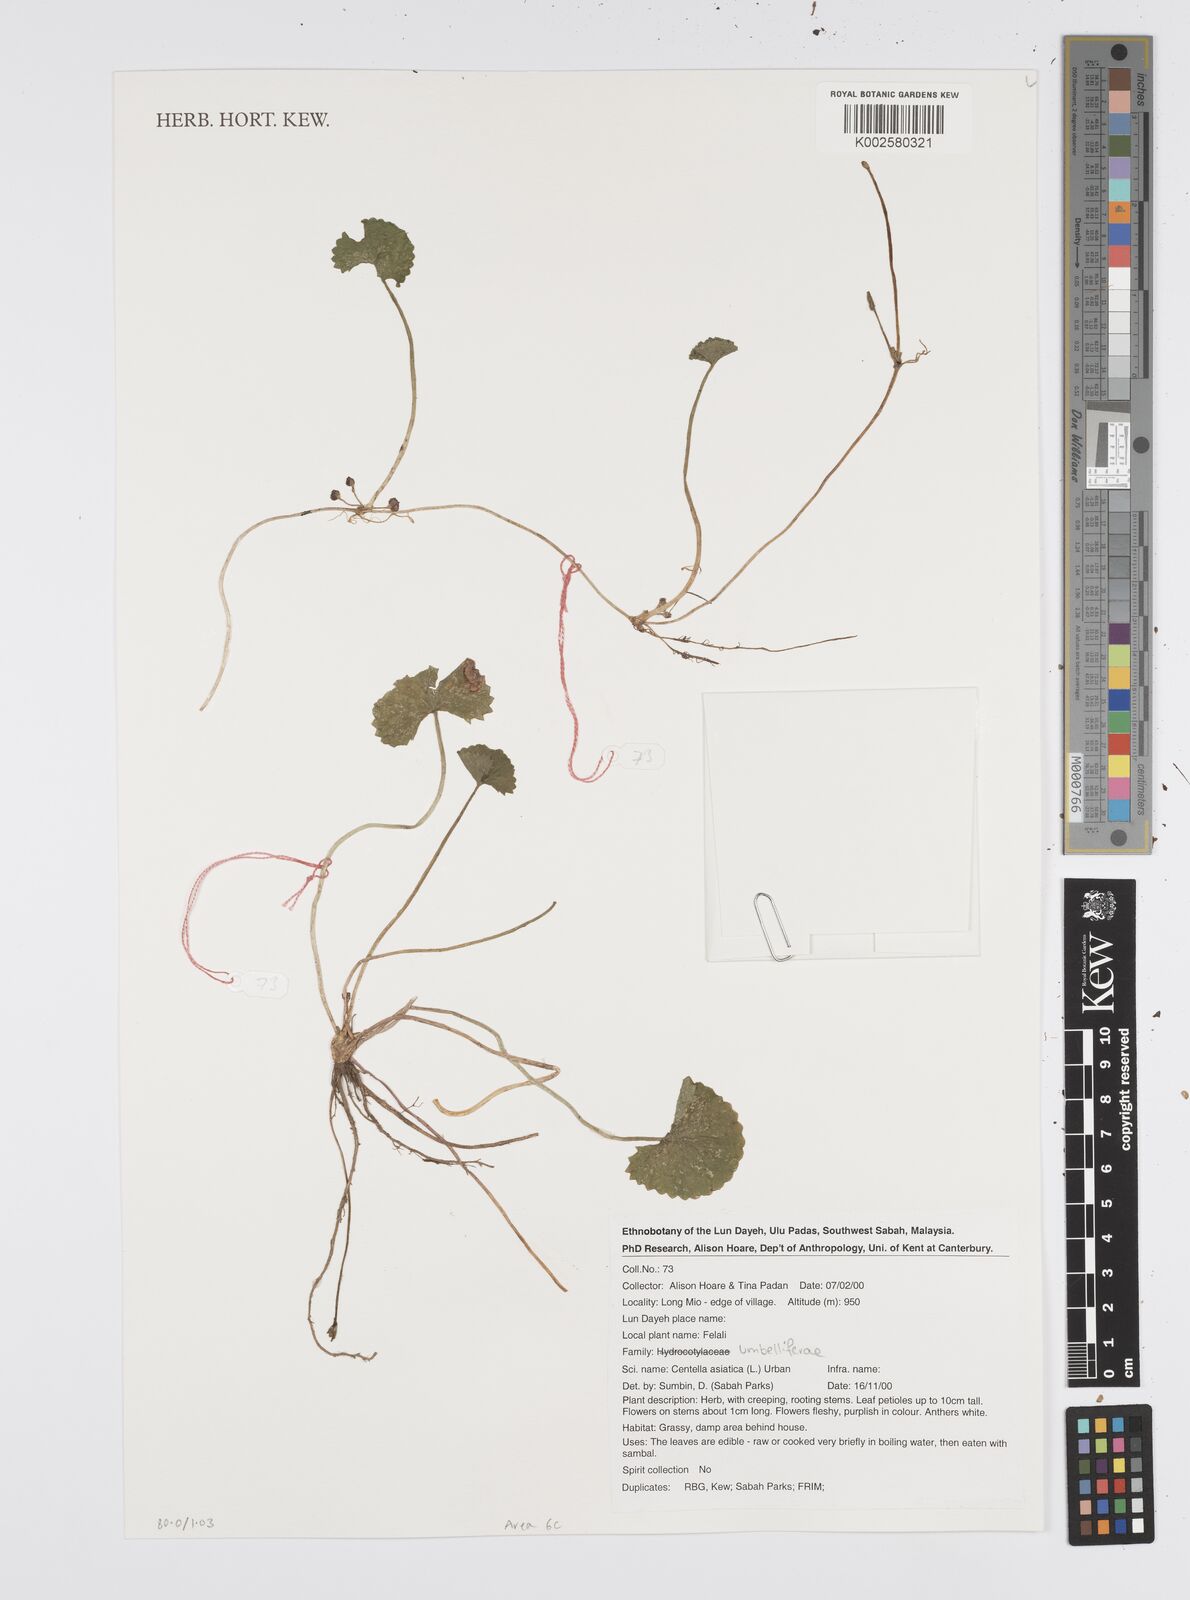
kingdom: Plantae
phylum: Tracheophyta
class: Magnoliopsida
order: Apiales
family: Apiaceae
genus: Centella
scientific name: Centella asiatica
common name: Spadeleaf
